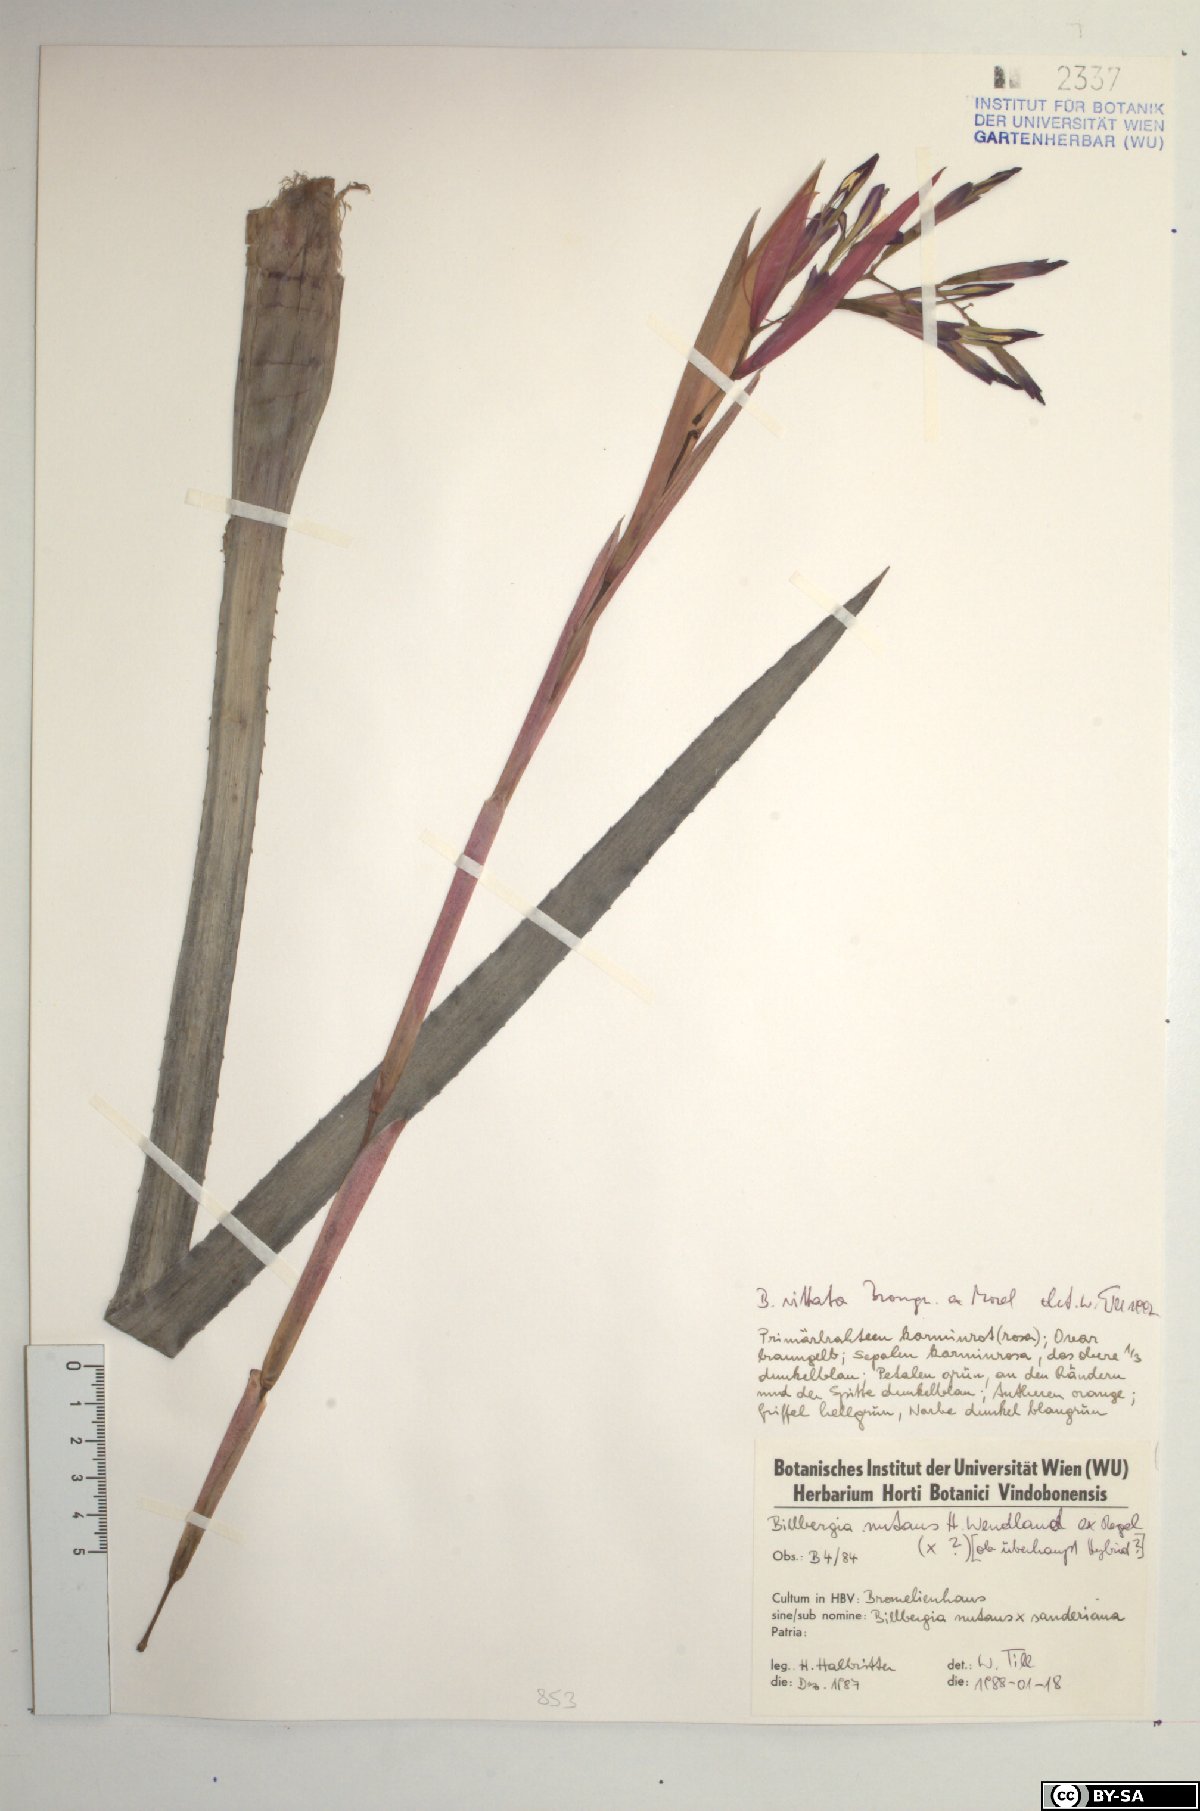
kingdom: Plantae
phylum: Tracheophyta
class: Liliopsida
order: Poales
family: Bromeliaceae
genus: Billbergia
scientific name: Billbergia vittata
